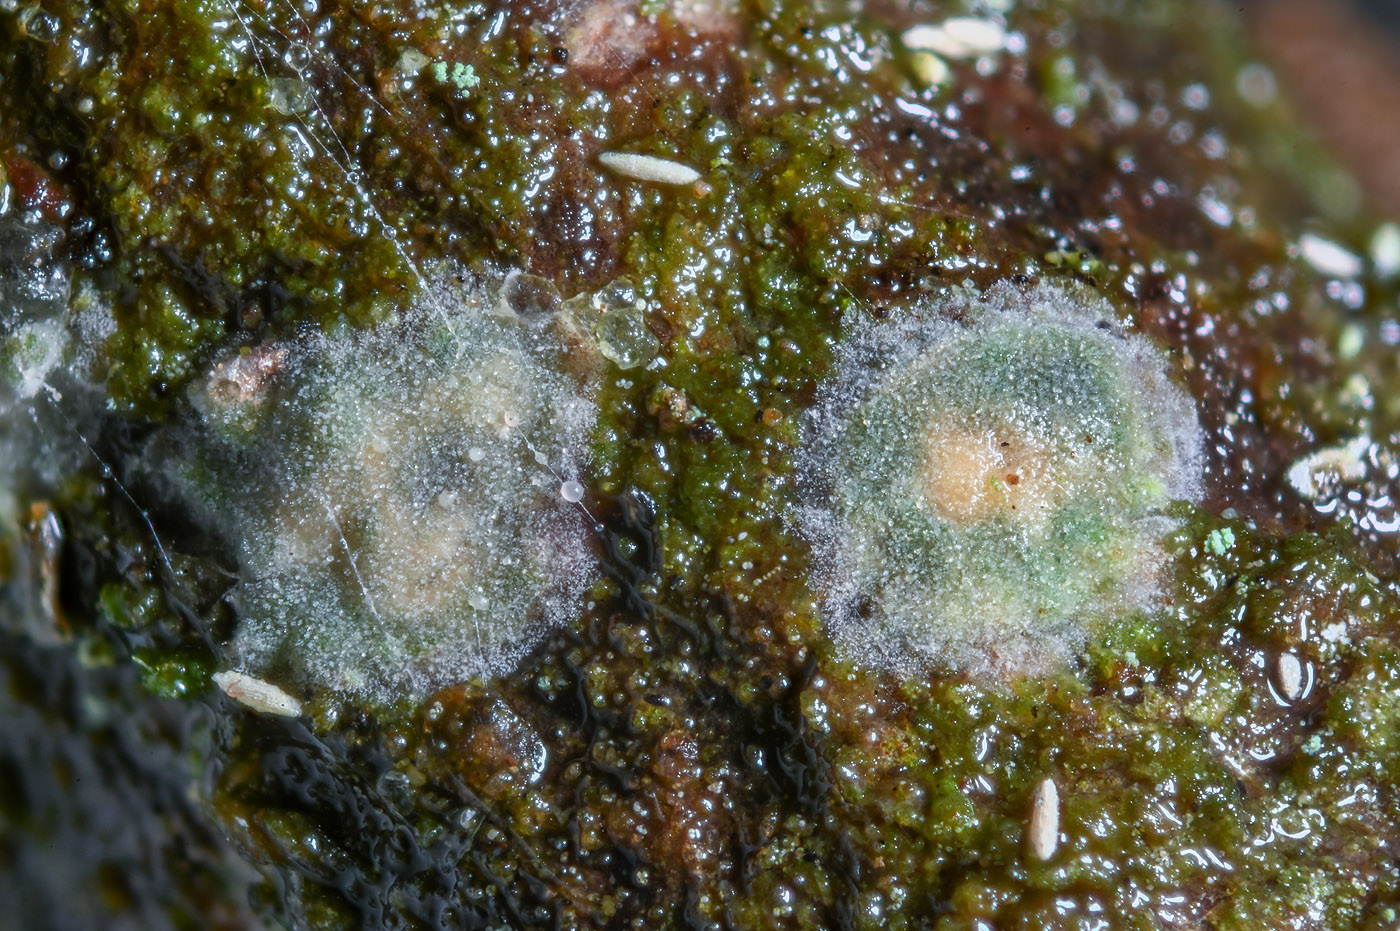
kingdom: Fungi
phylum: Basidiomycota
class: Agaricomycetes
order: Hymenochaetales
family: Rickenellaceae
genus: Globulicium
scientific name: Globulicium hiemale
